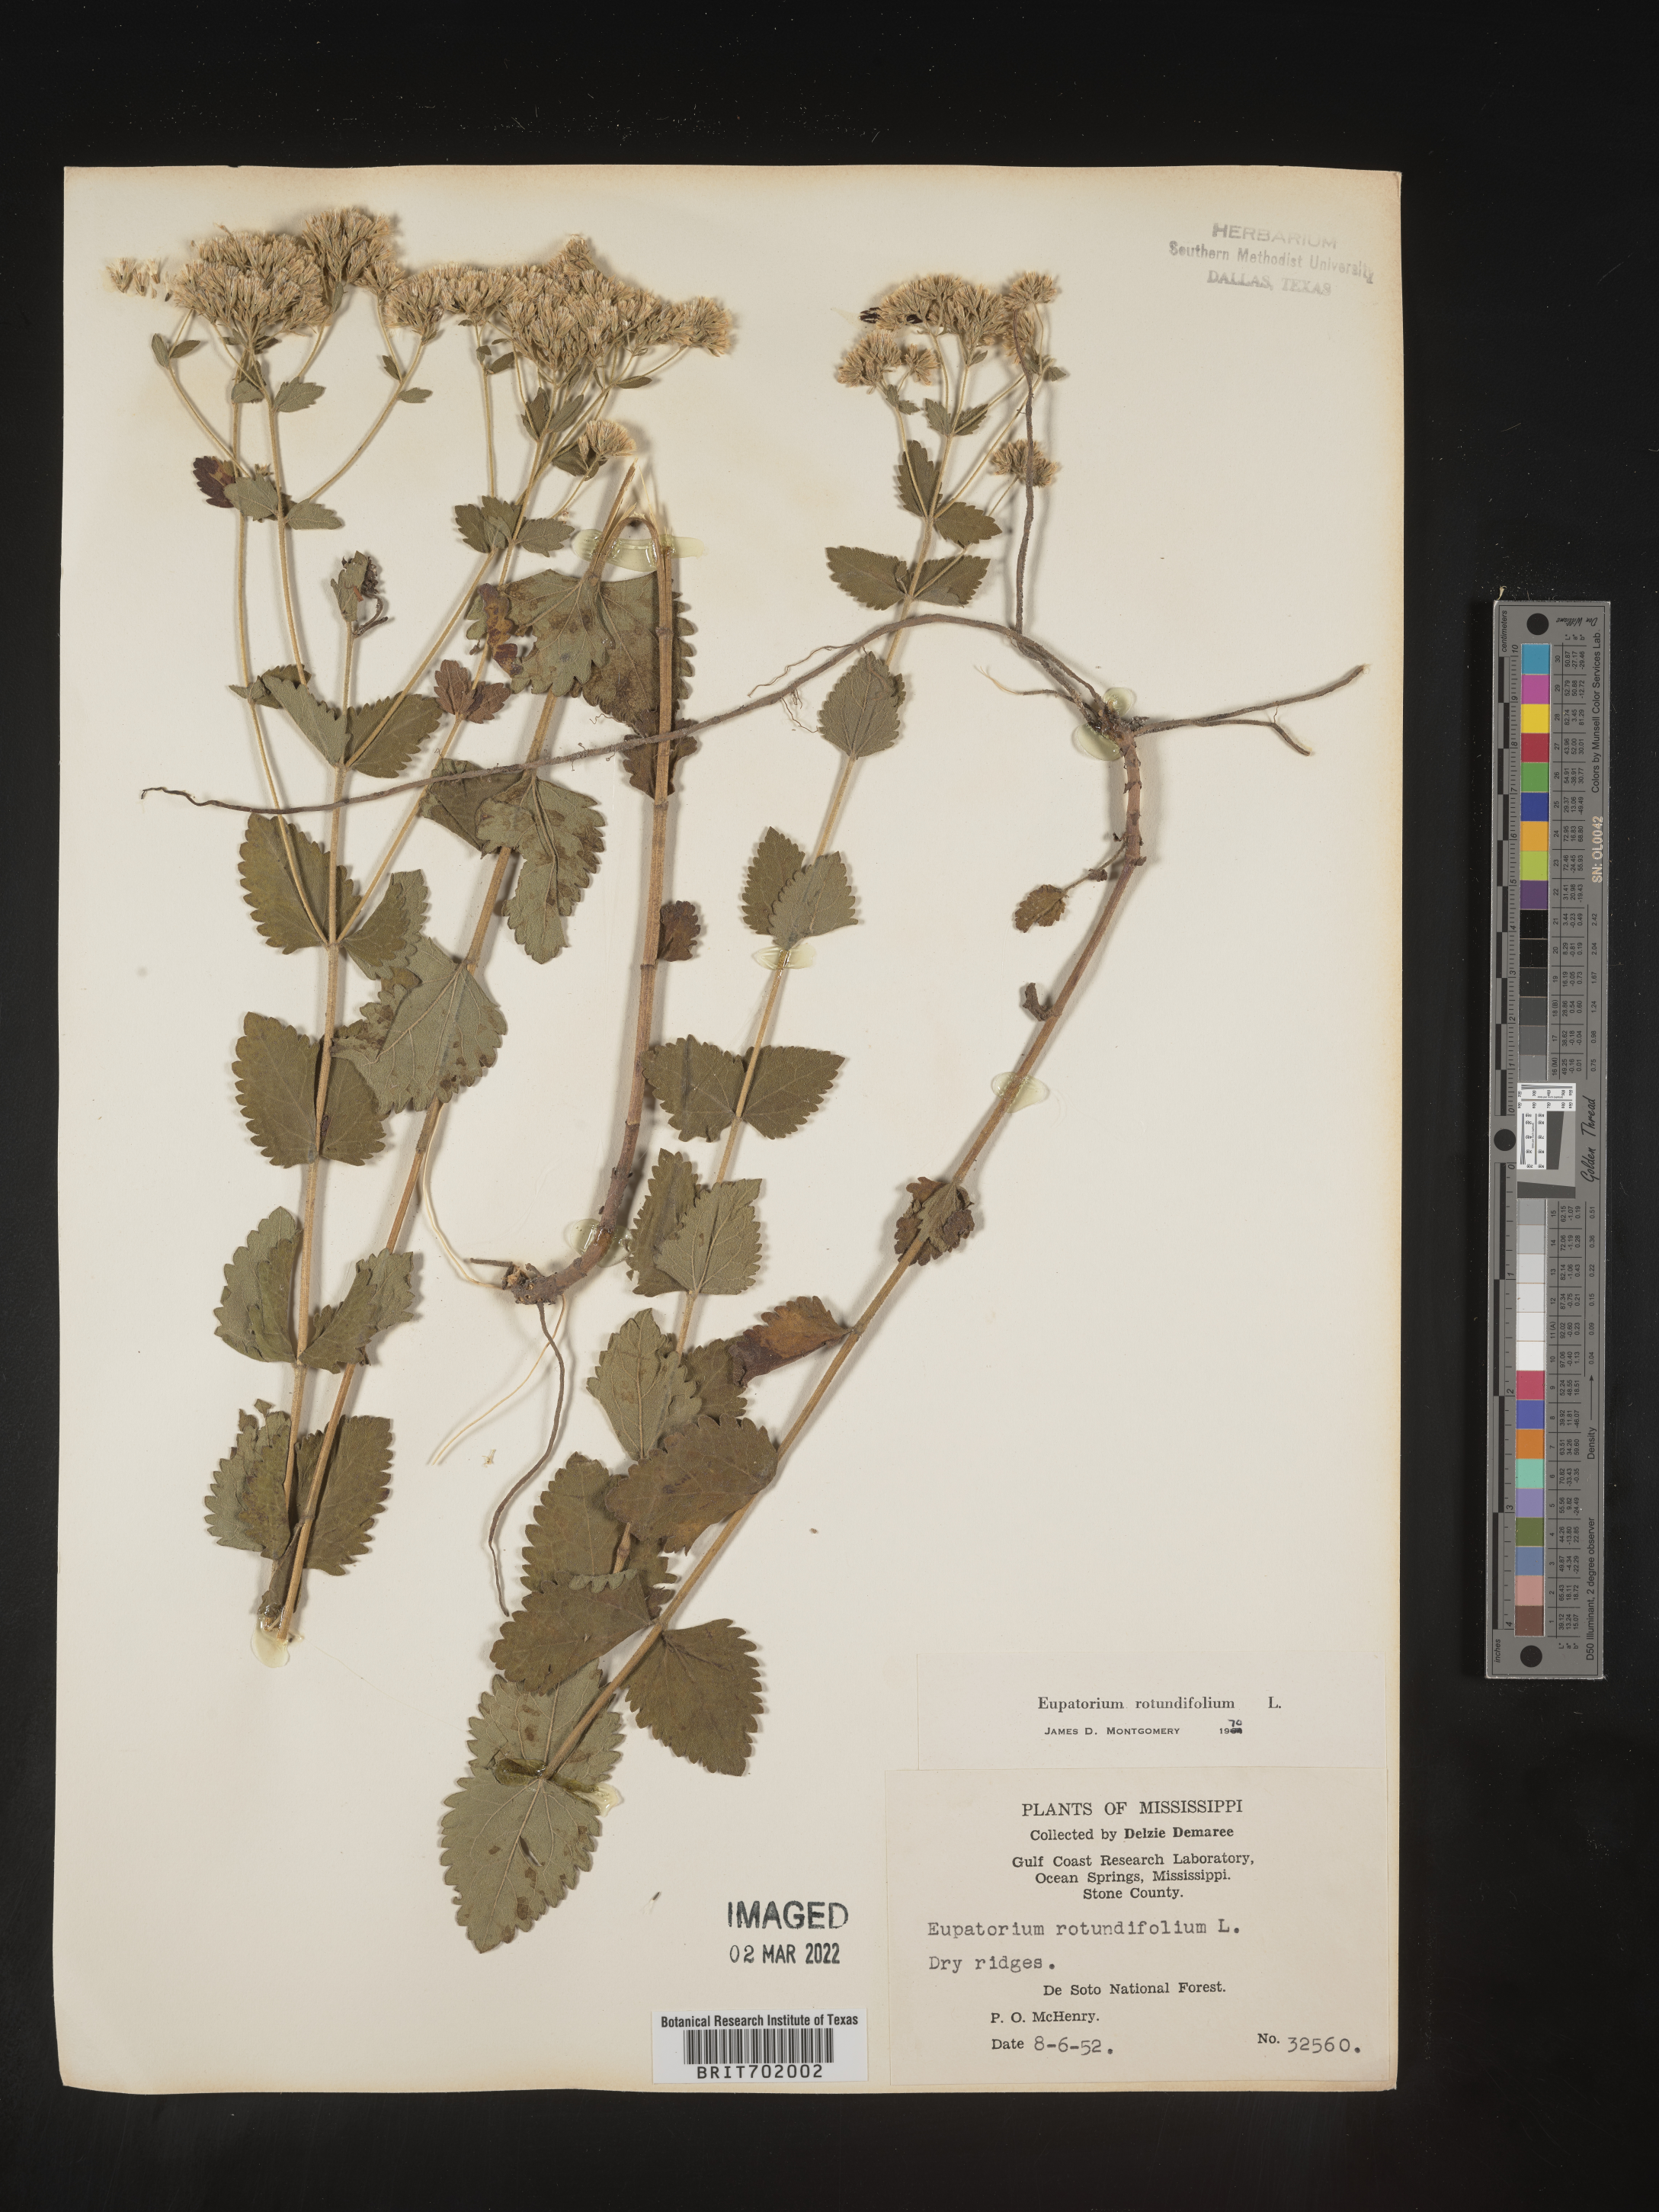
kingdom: Plantae
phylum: Tracheophyta
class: Magnoliopsida
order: Asterales
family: Asteraceae
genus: Eupatorium
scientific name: Eupatorium rotundifolium
